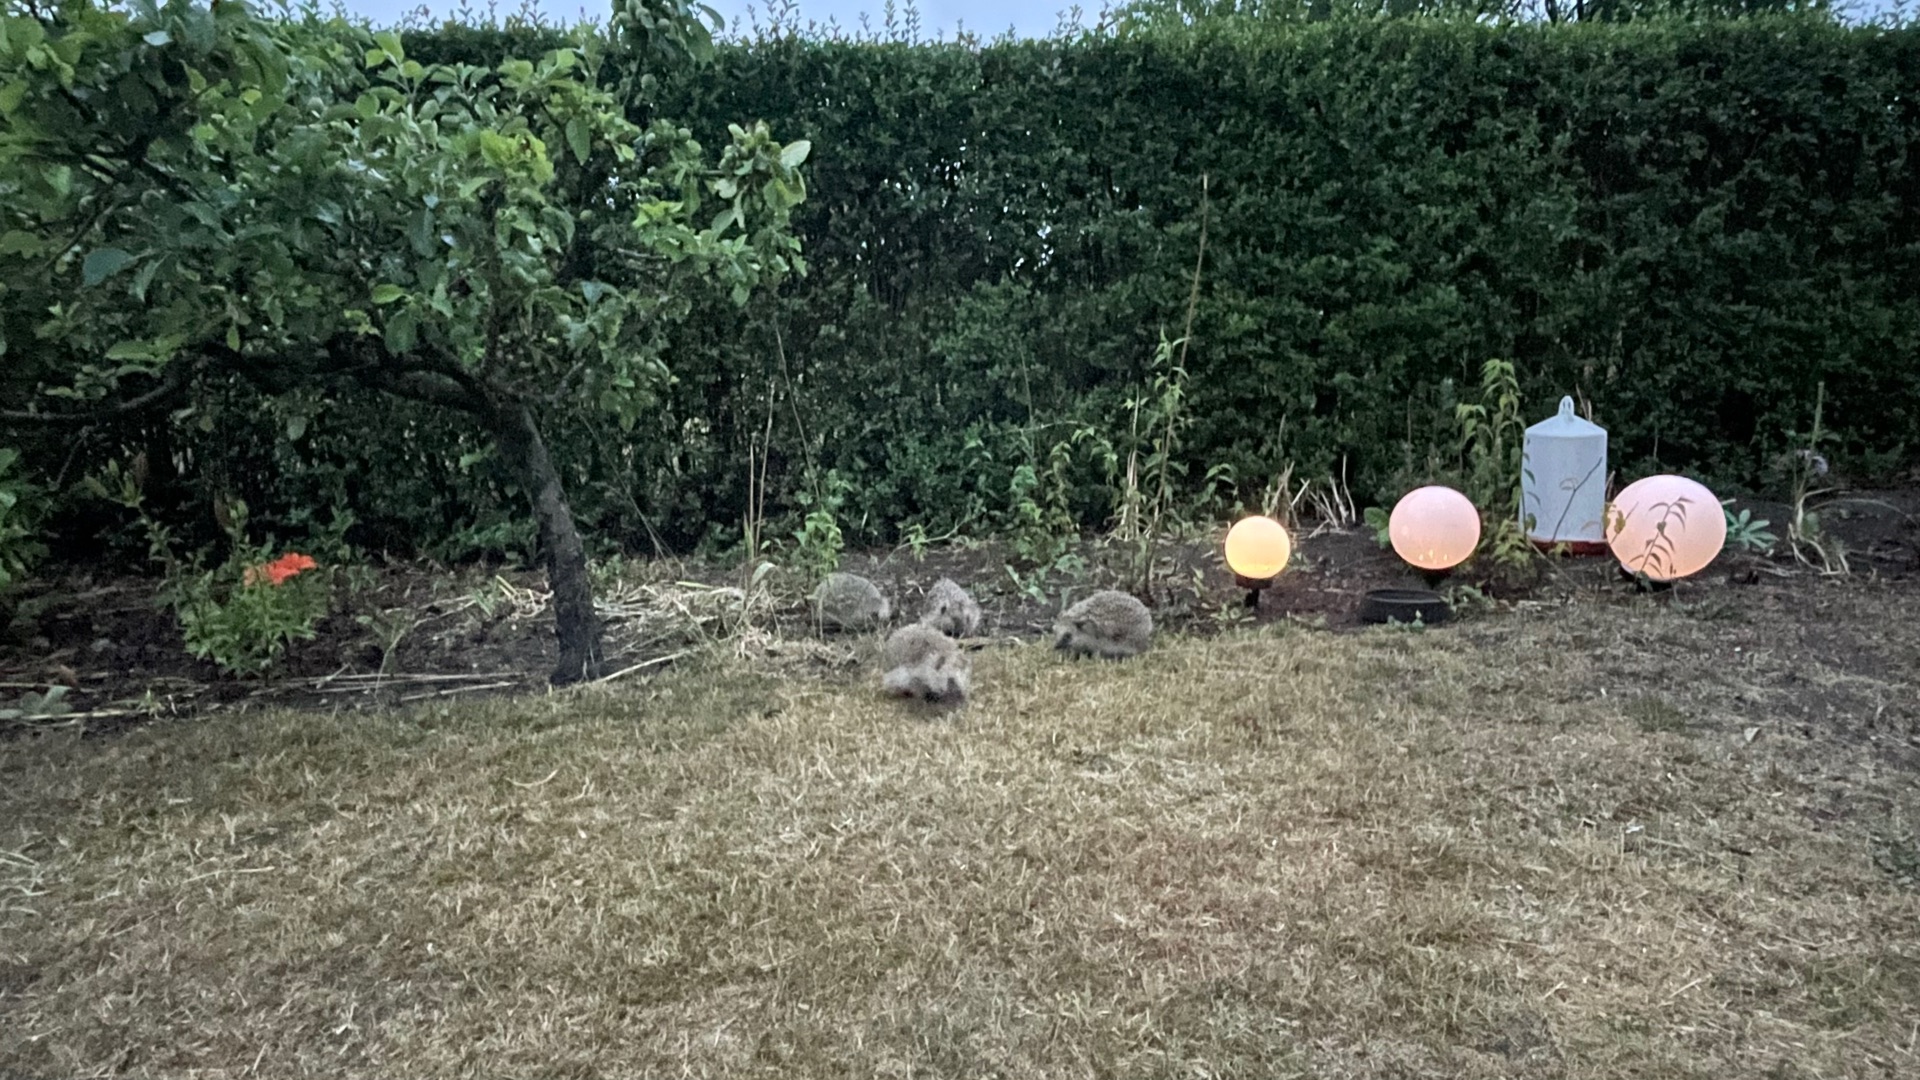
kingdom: Animalia
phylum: Chordata
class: Mammalia
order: Erinaceomorpha
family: Erinaceidae
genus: Erinaceus
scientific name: Erinaceus europaeus
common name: Pindsvin
